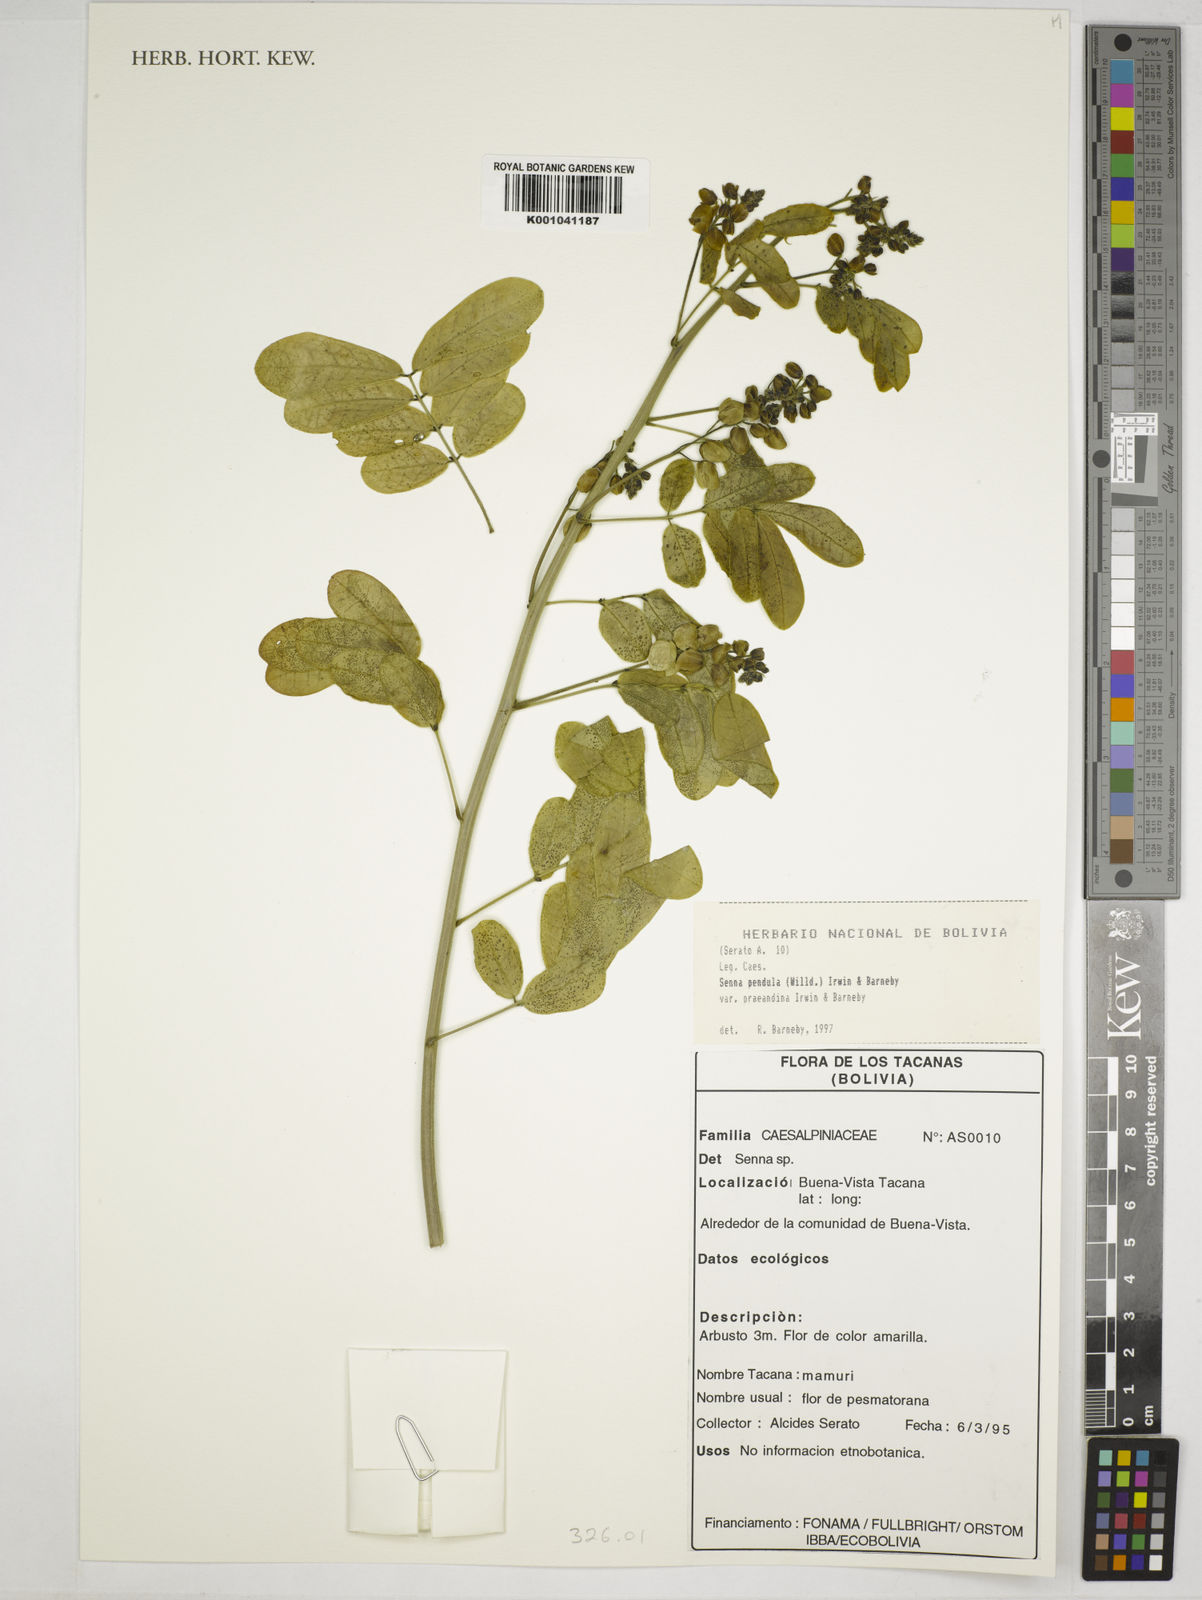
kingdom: Plantae
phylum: Tracheophyta
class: Magnoliopsida
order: Fabales
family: Fabaceae
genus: Senna
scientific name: Senna pendula
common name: Easter cassia
